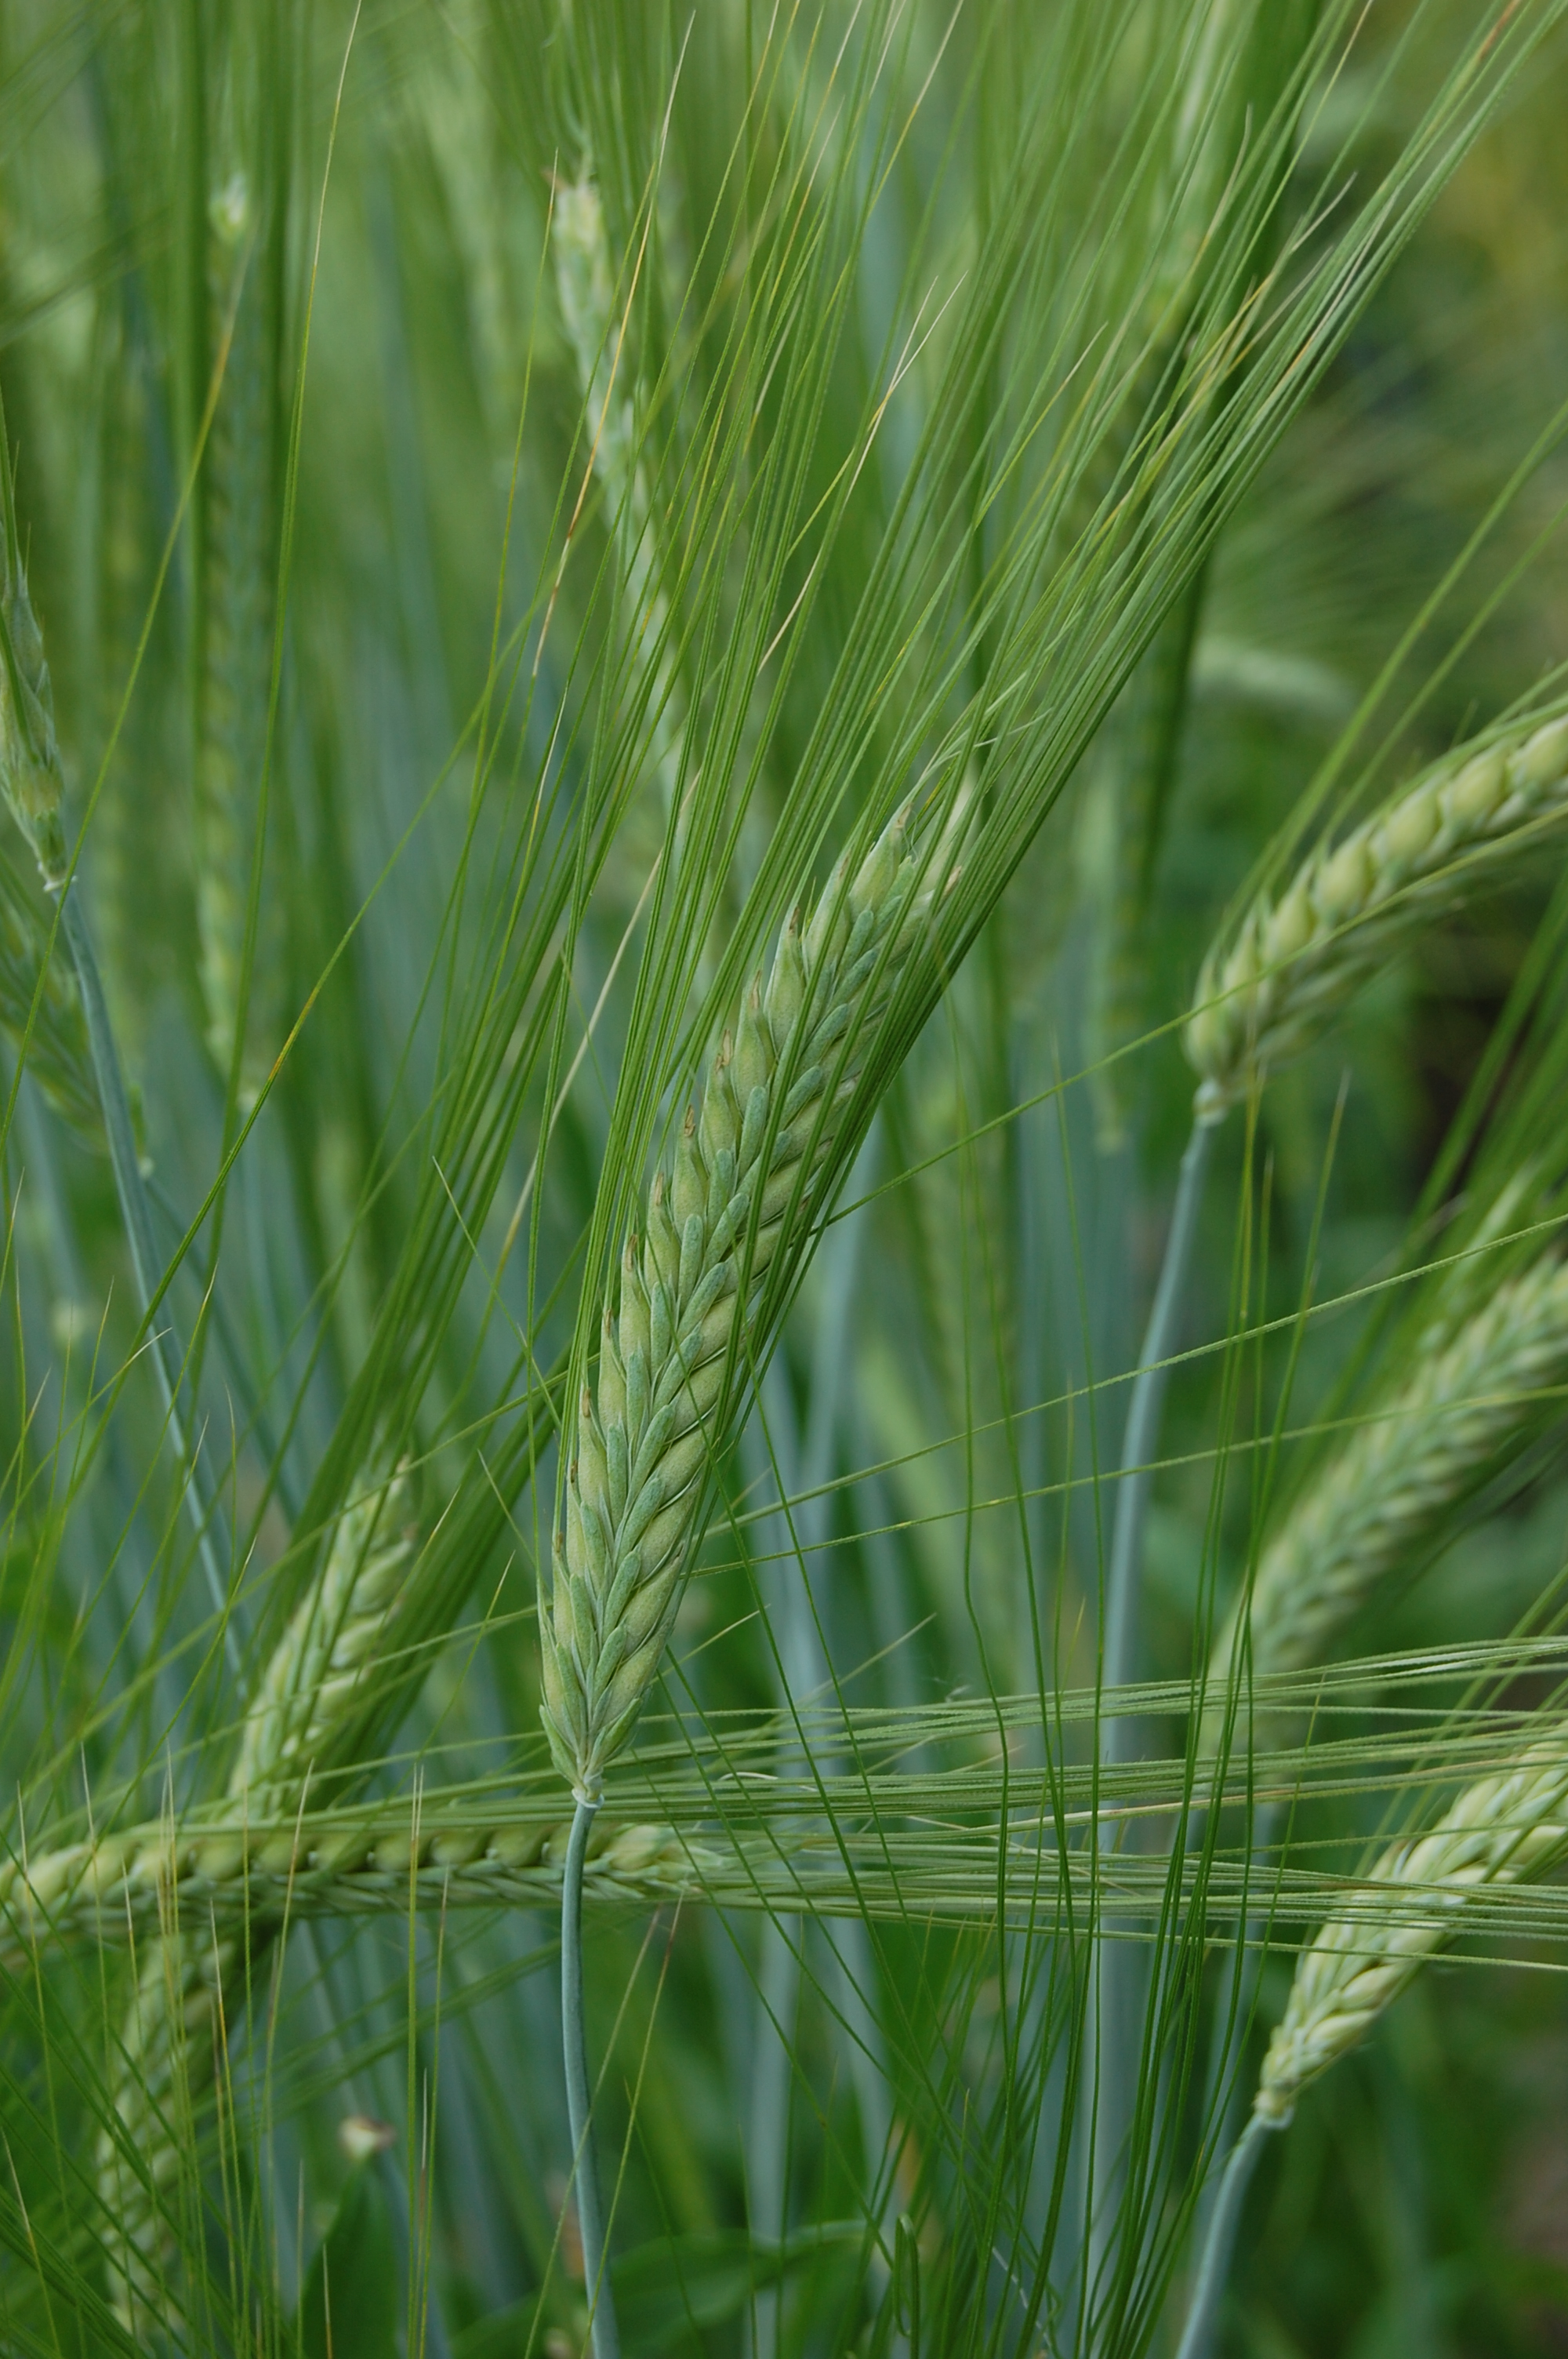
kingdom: Plantae
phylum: Tracheophyta
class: Liliopsida
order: Poales
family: Poaceae
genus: Hordeum
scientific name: Hordeum vulgare
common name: Common barley
